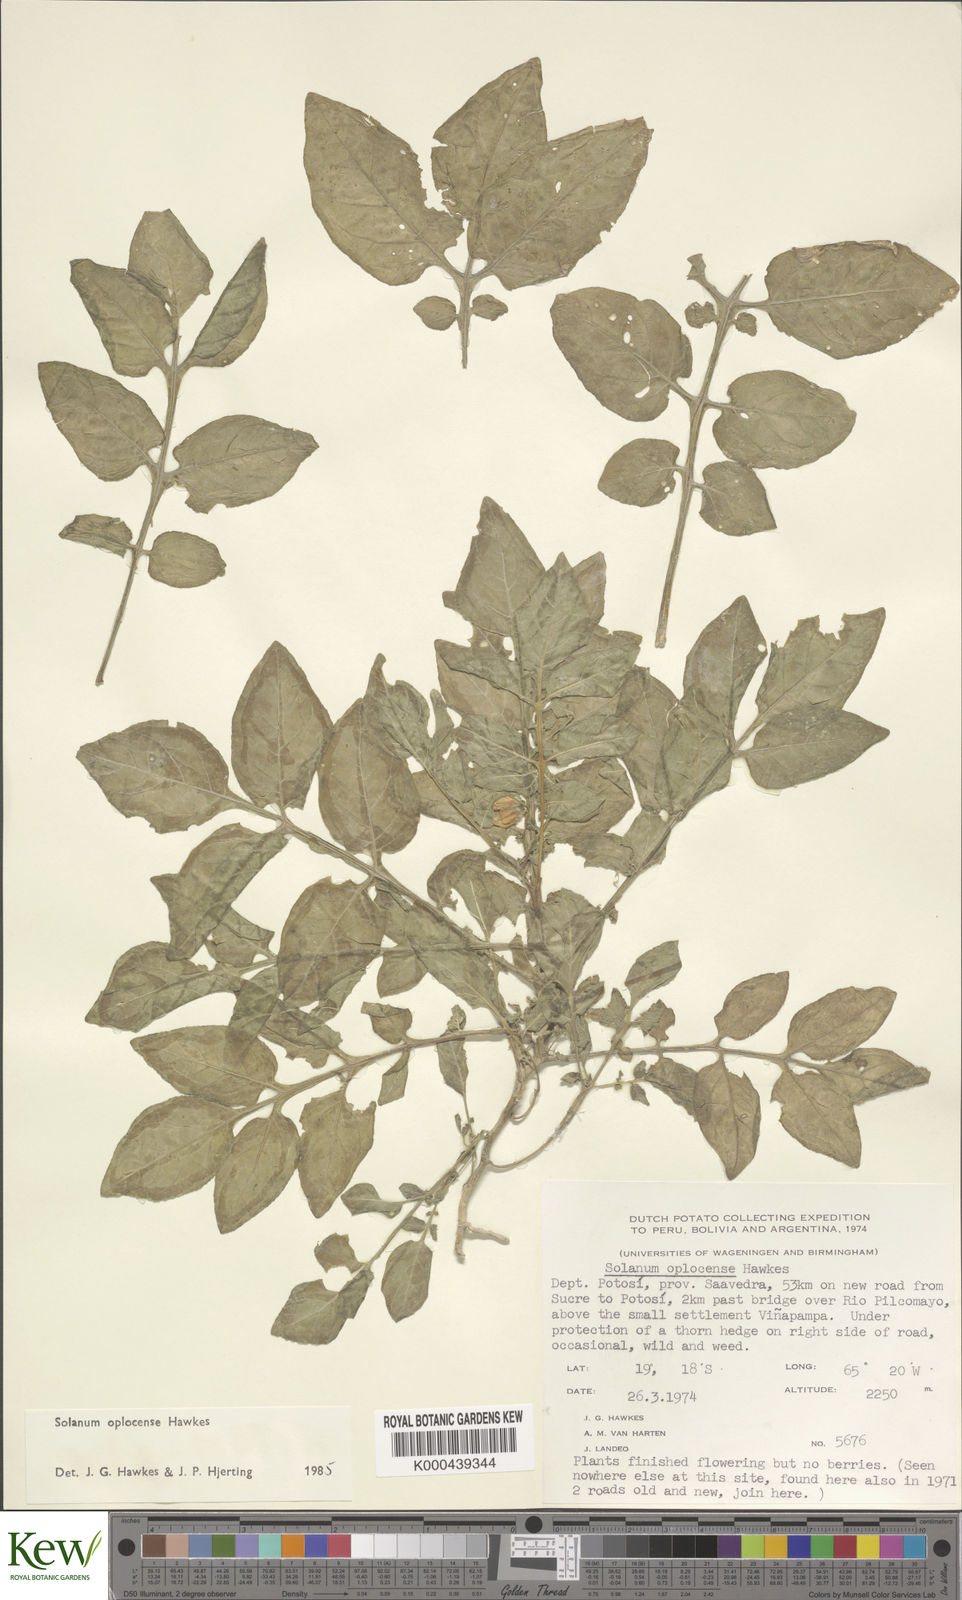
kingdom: Plantae
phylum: Tracheophyta
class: Magnoliopsida
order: Solanales
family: Solanaceae
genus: Solanum
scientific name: Solanum brevicaule
